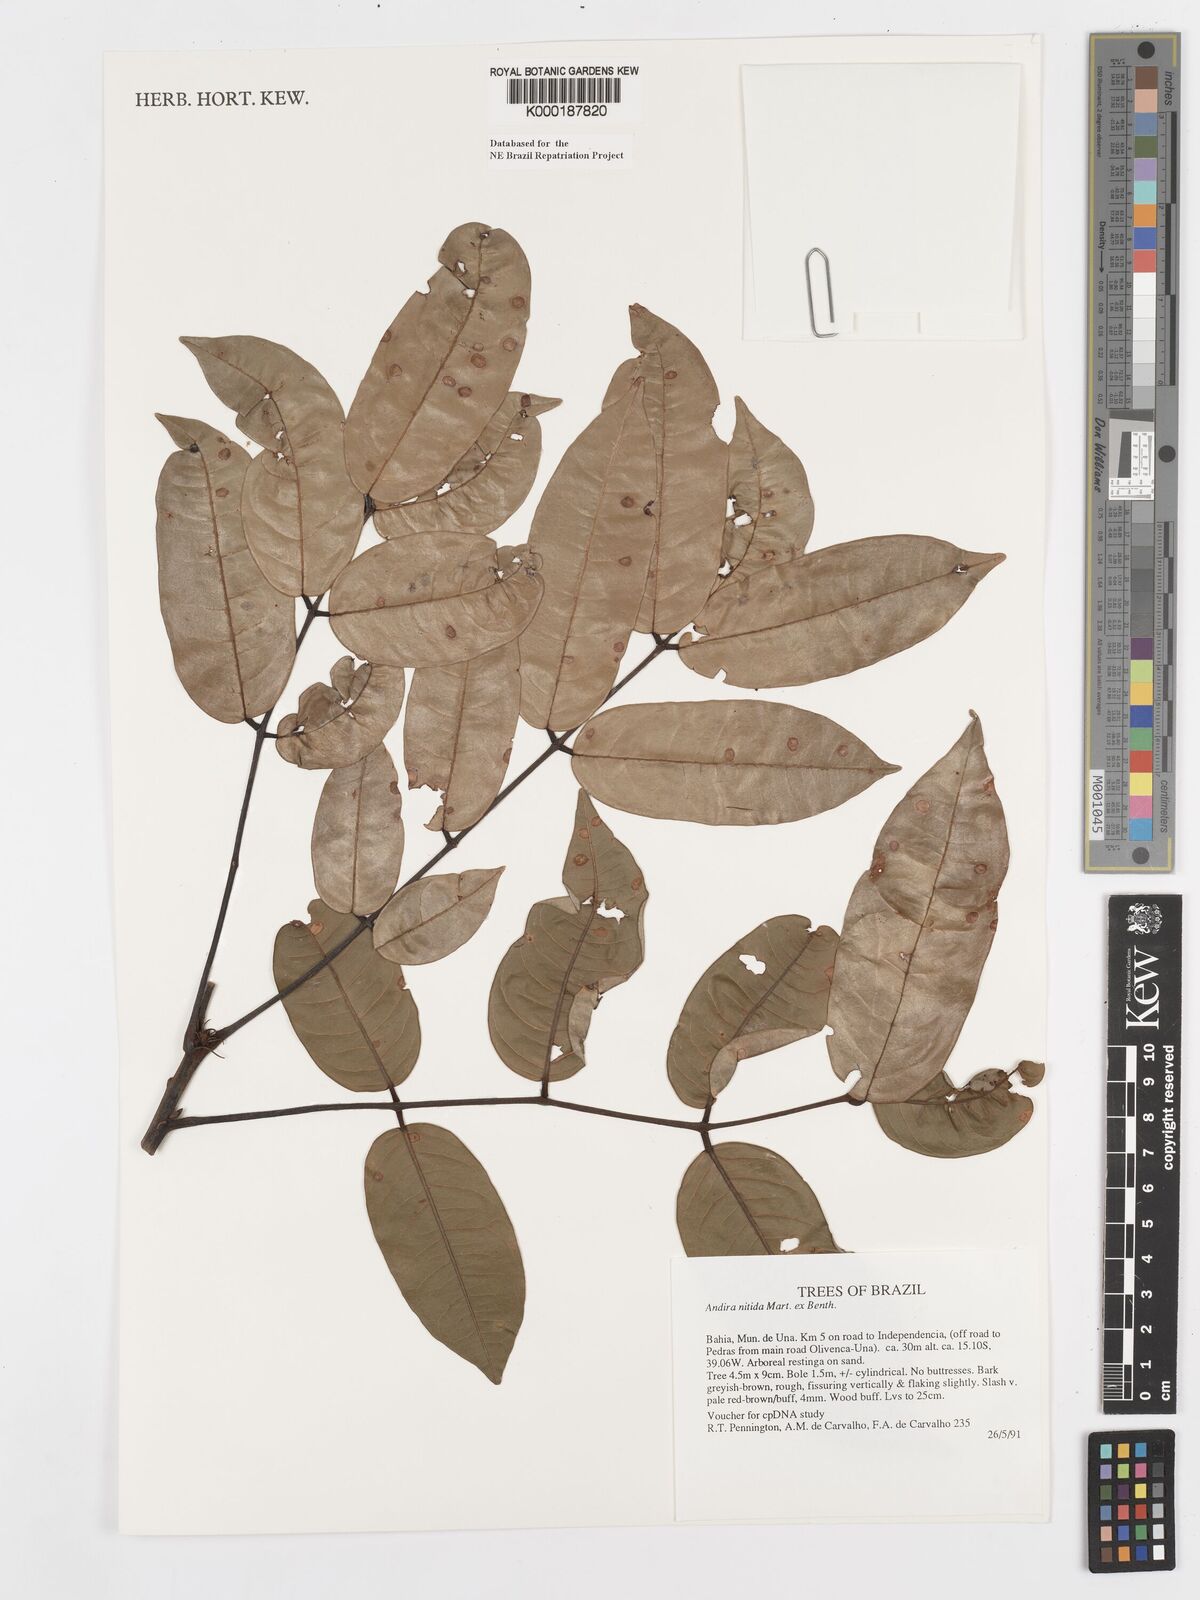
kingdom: Plantae
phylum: Tracheophyta
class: Magnoliopsida
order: Fabales
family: Fabaceae
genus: Andira
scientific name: Andira nitida
